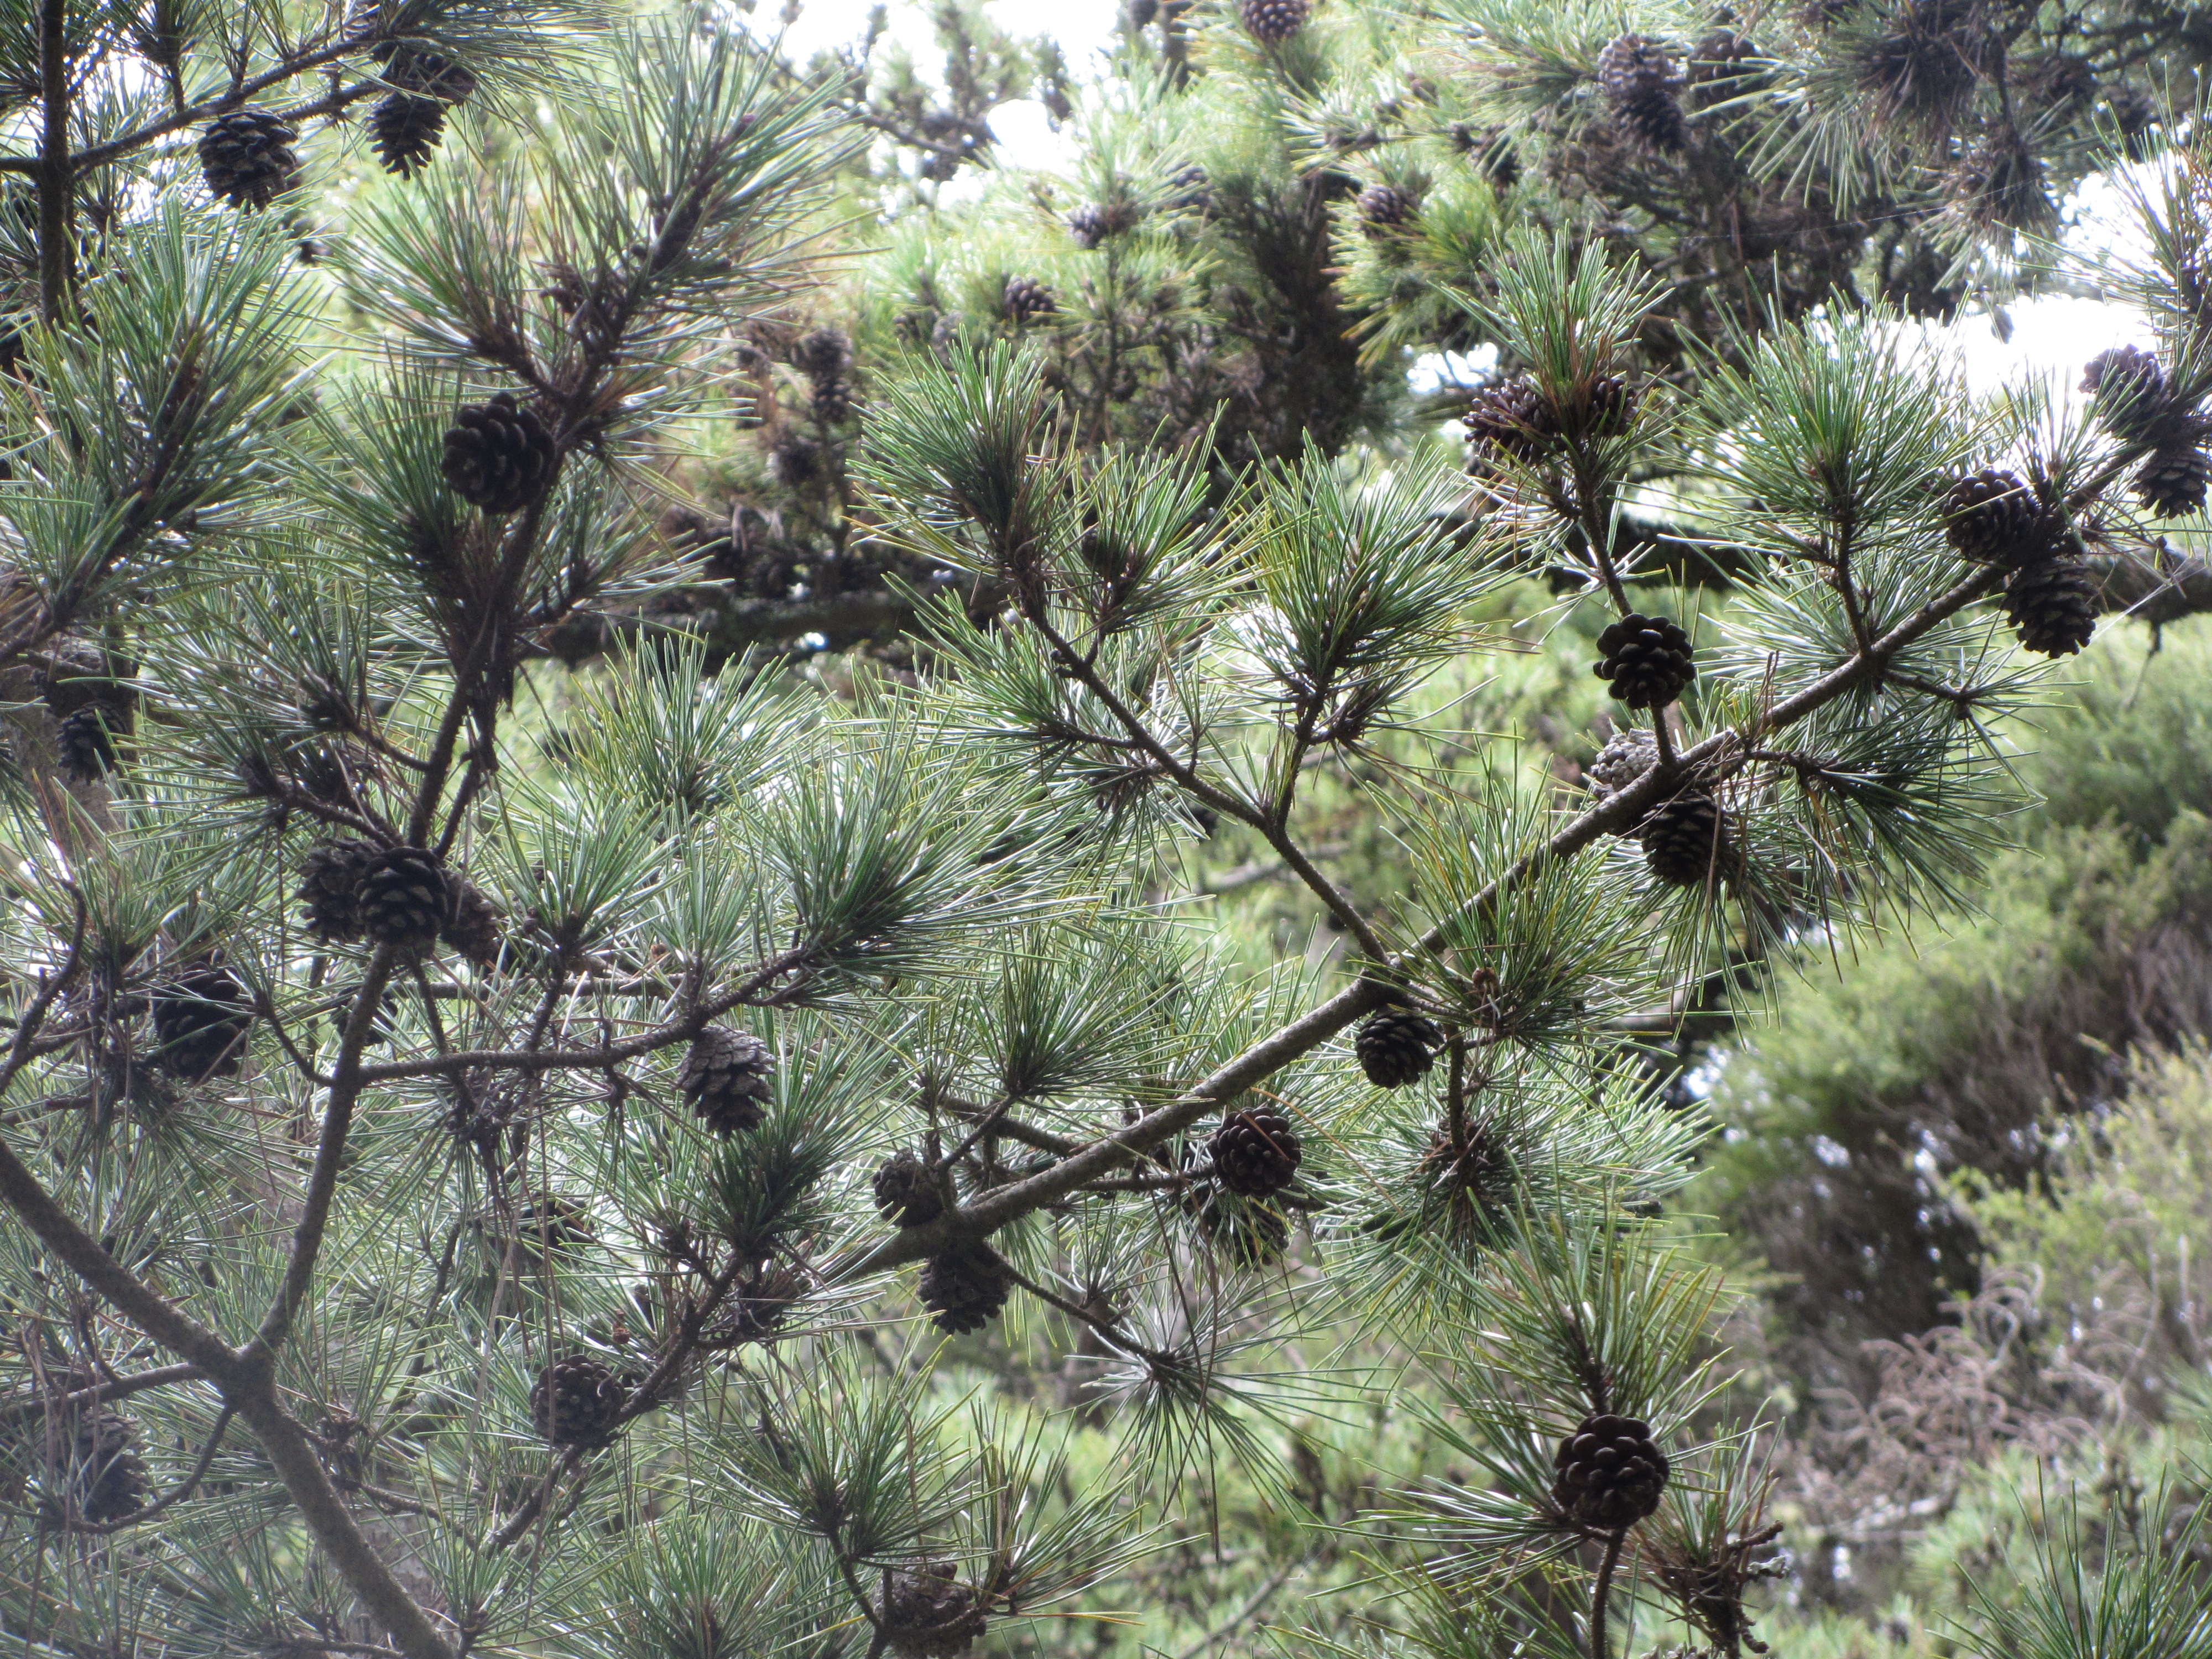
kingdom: Plantae
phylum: Tracheophyta
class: Pinopsida
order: Pinales
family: Pinaceae
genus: Pinus
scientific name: Pinus thunbergii
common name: Japanese black pine
